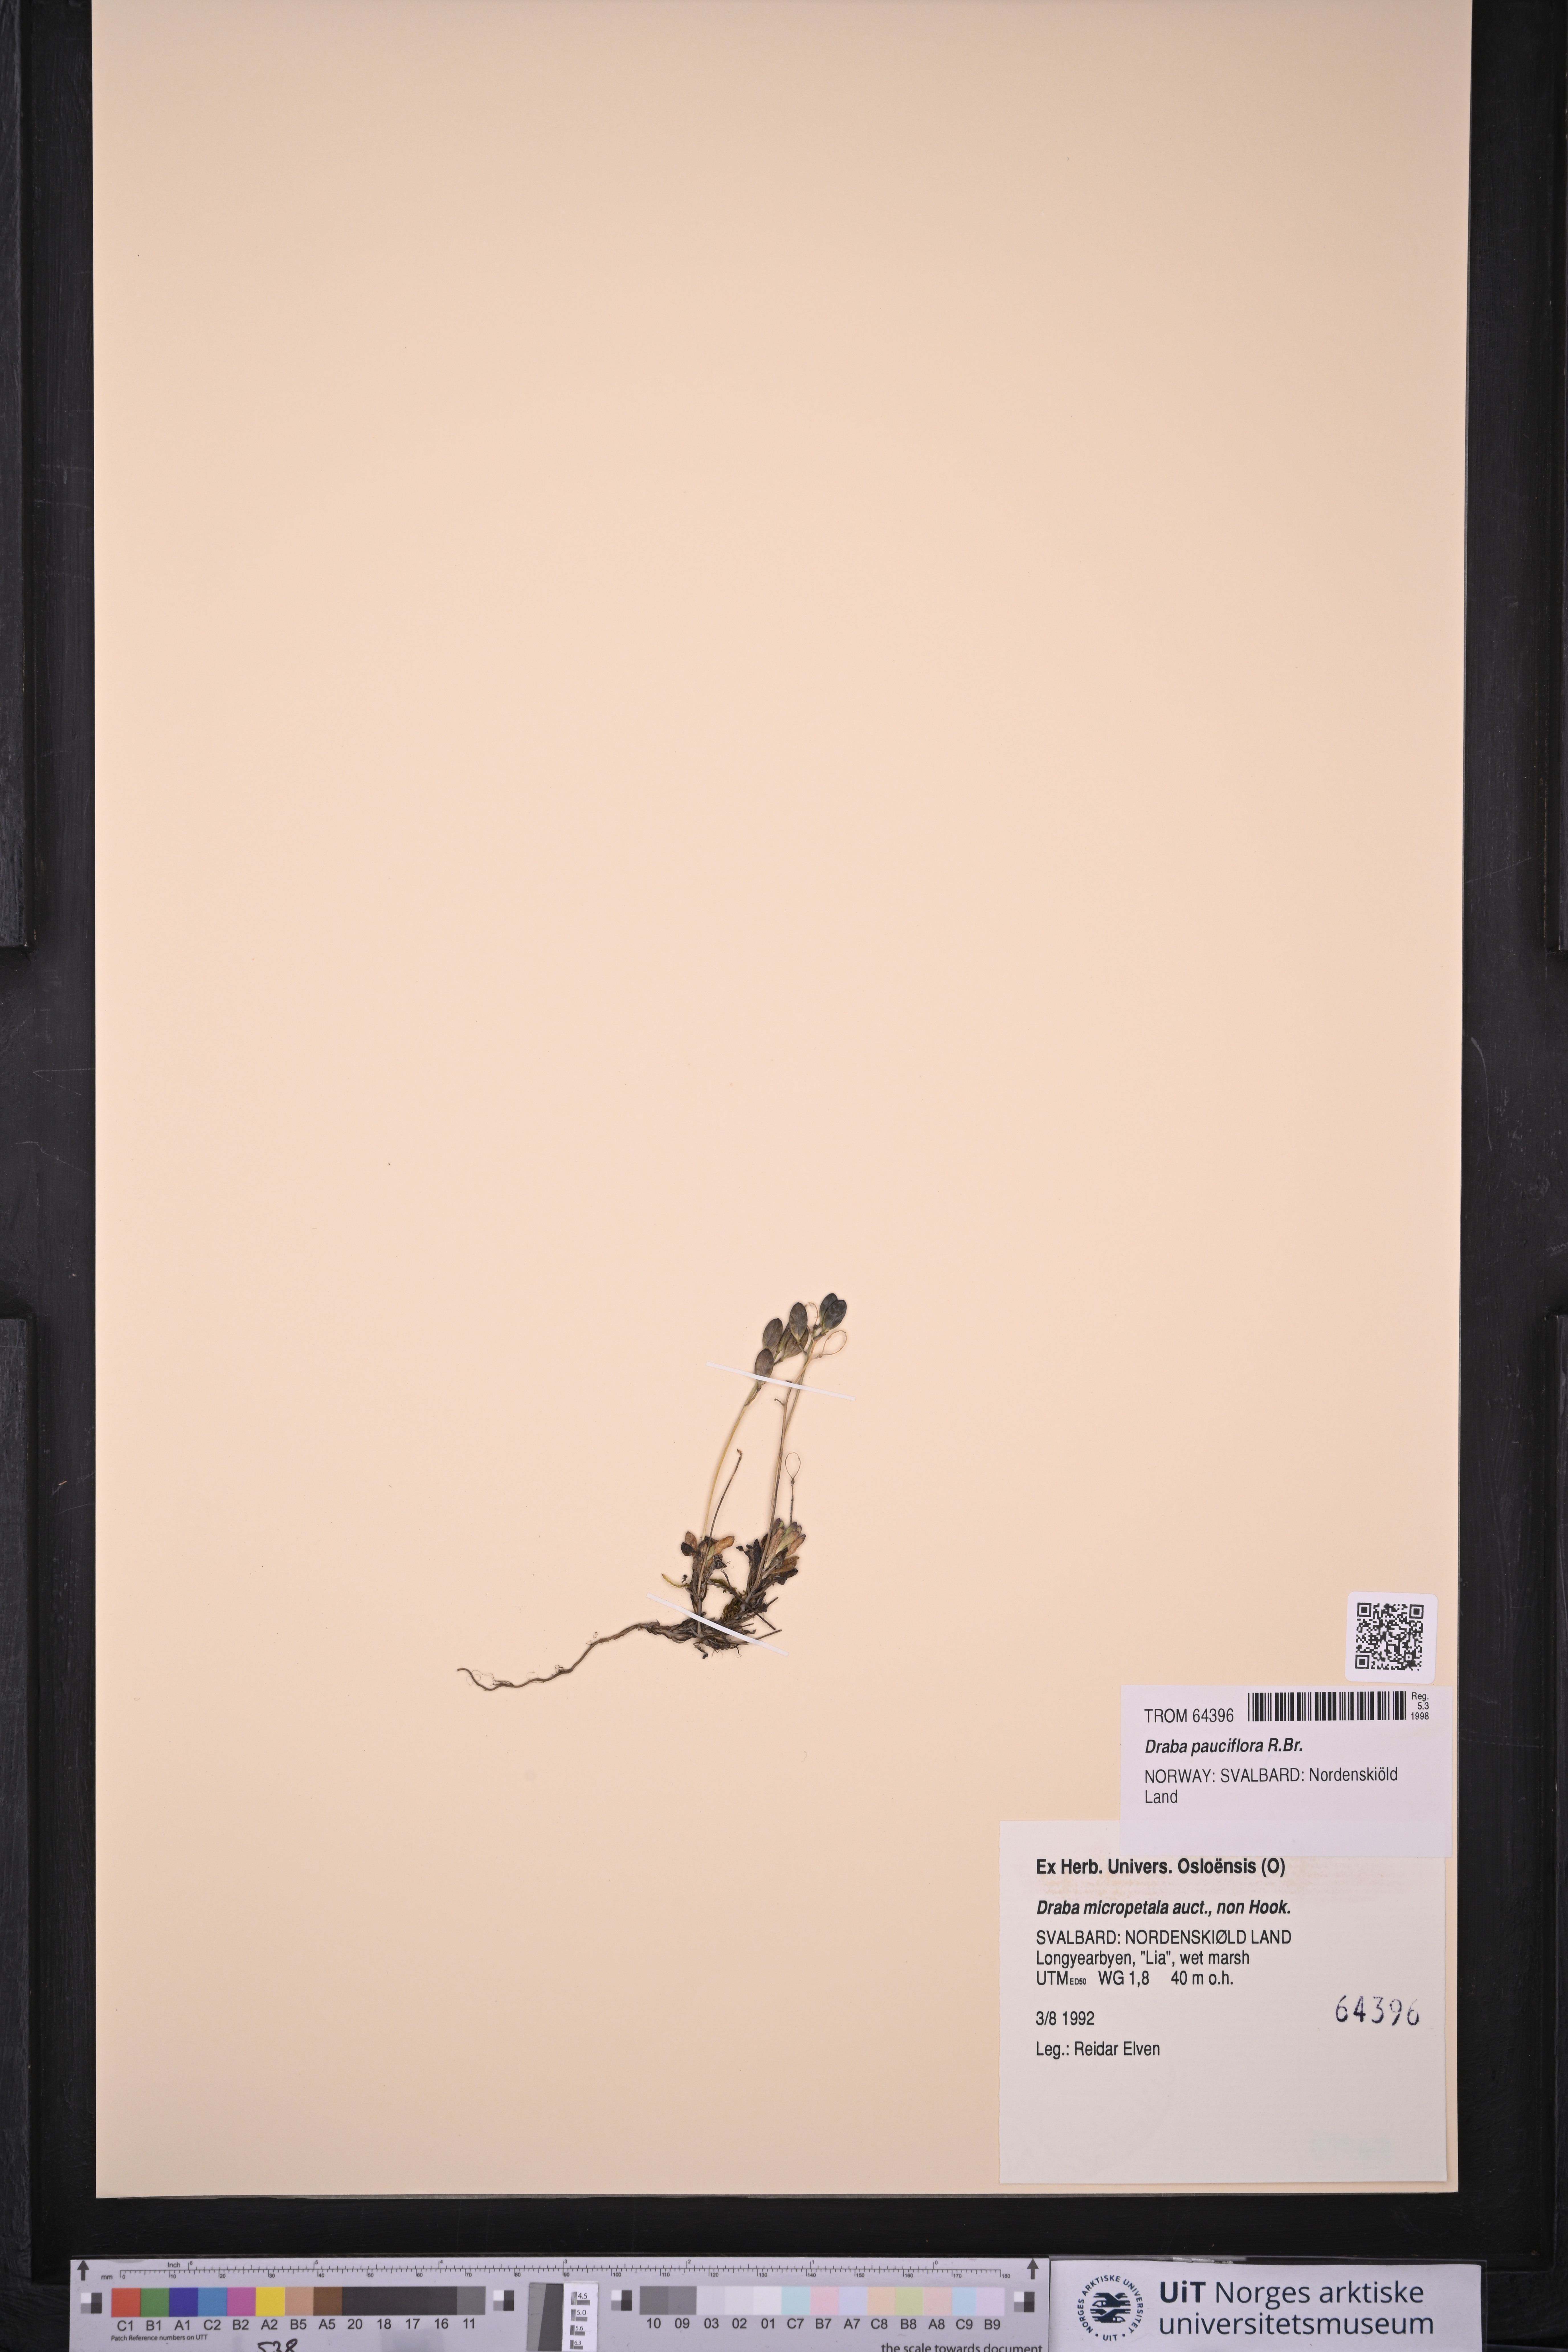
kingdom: Plantae
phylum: Tracheophyta
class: Magnoliopsida
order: Brassicales
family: Brassicaceae
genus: Draba
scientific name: Draba micropetala
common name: Small-flowered draba
